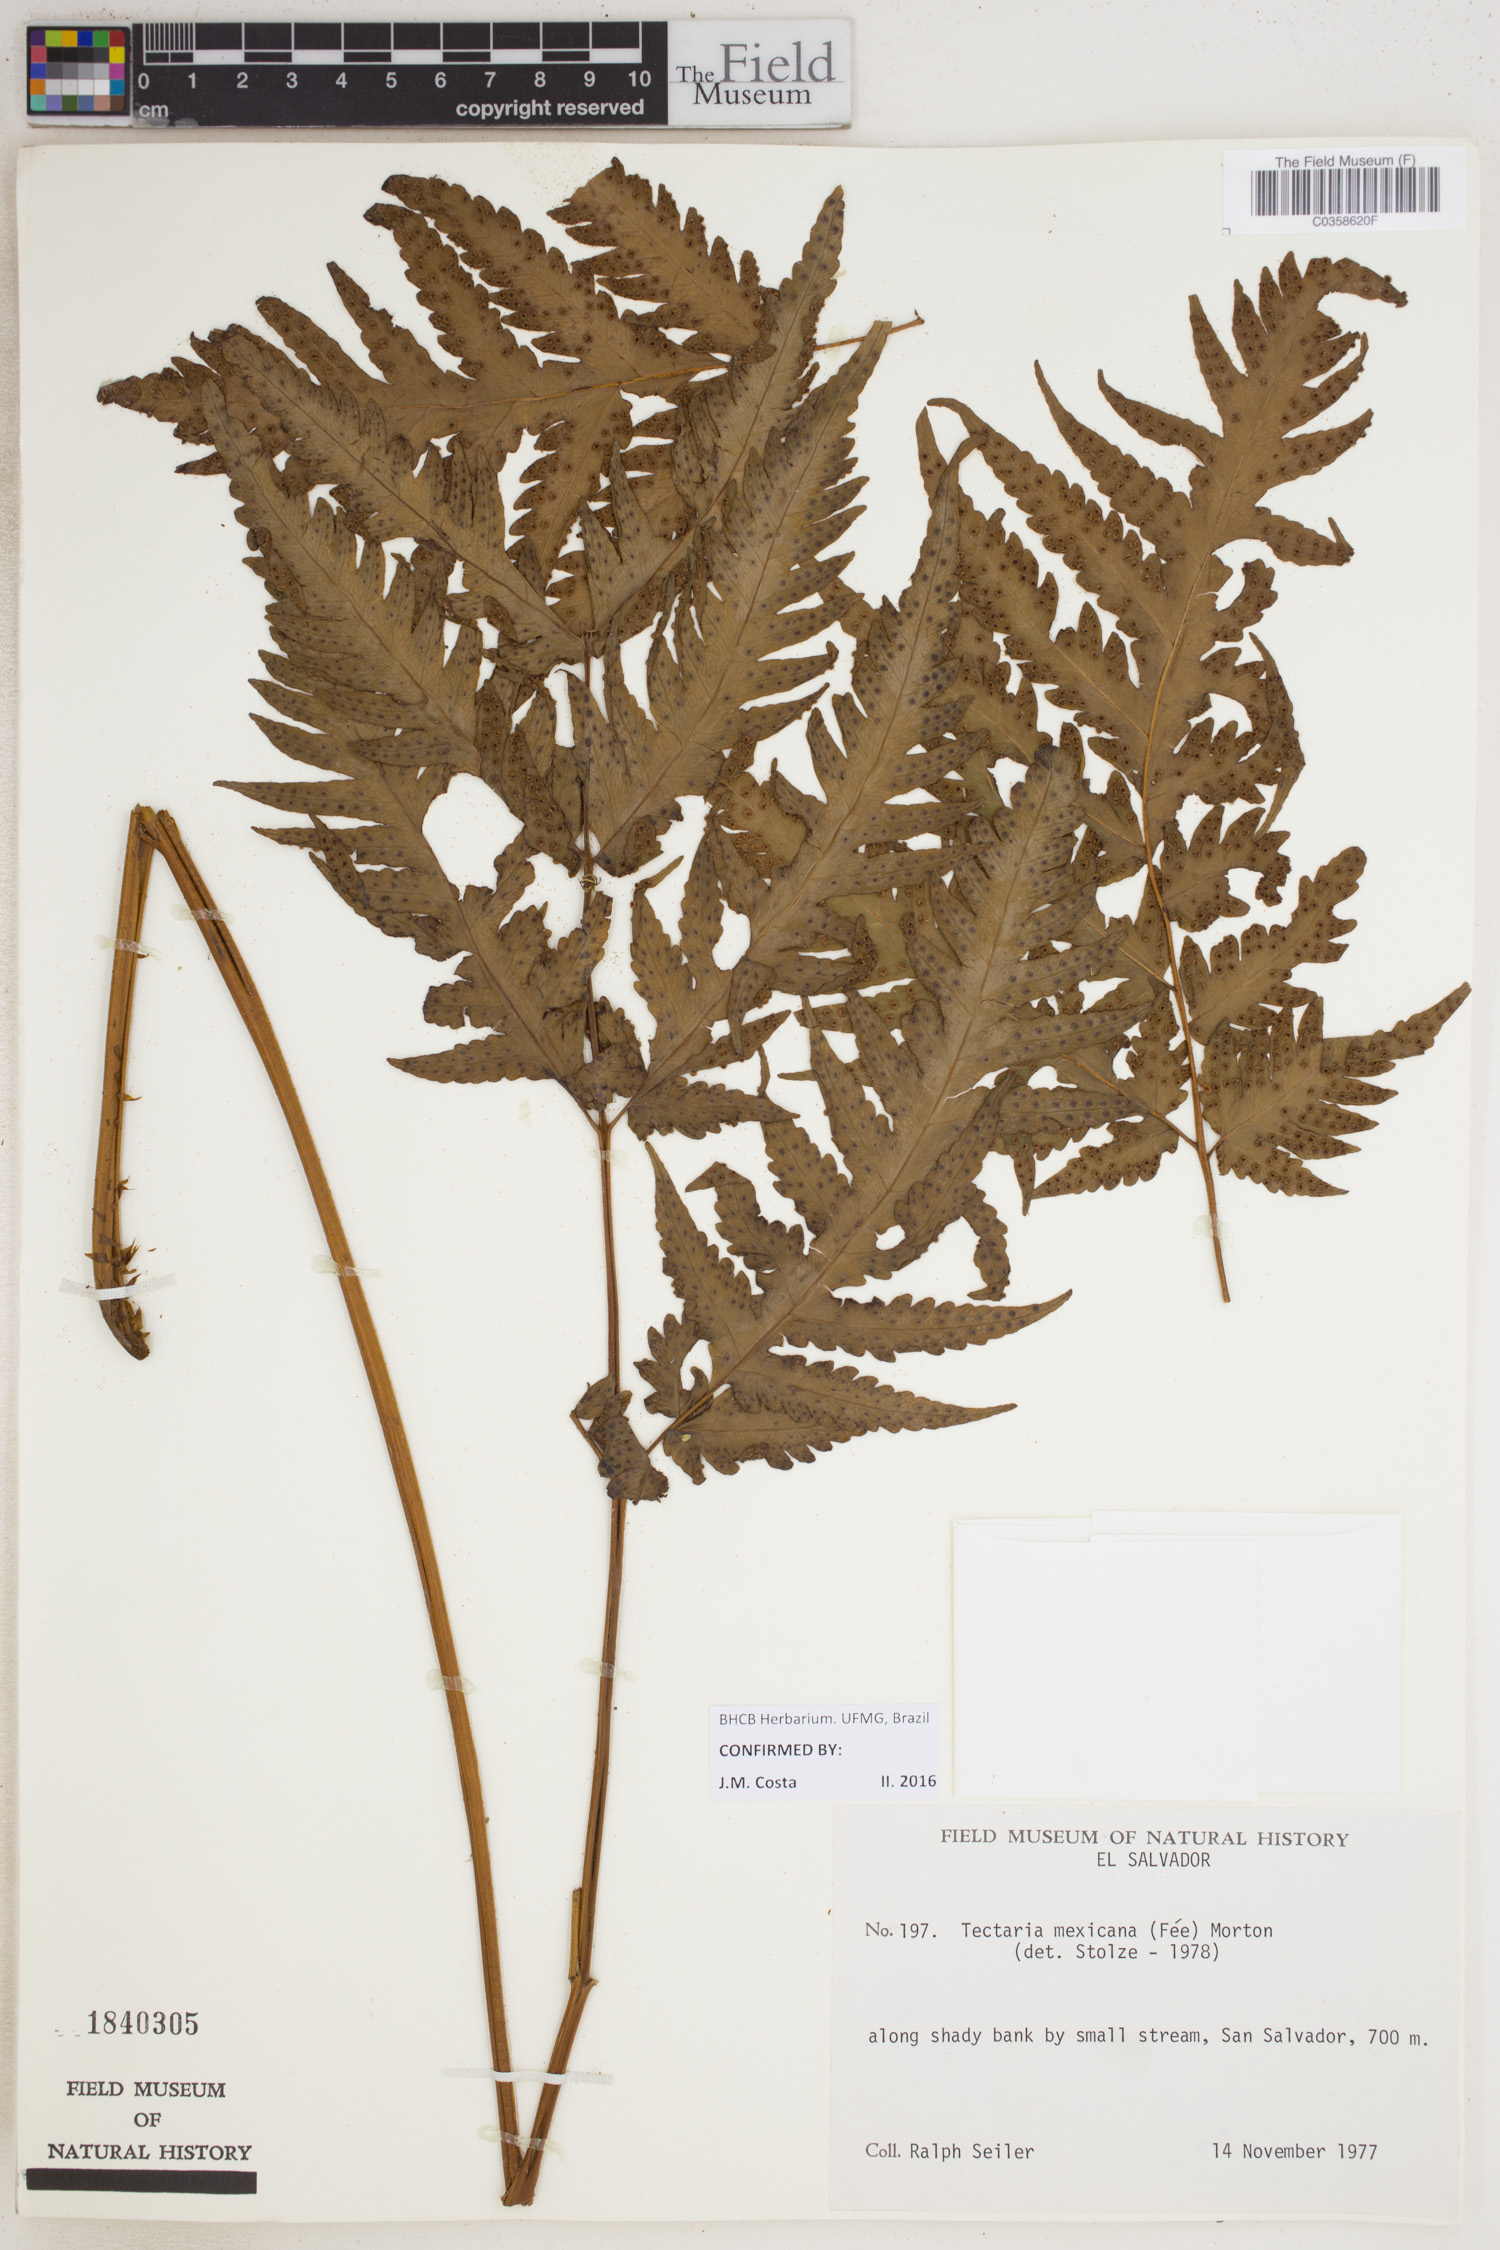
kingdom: Plantae
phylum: Tracheophyta
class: Polypodiopsida
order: Polypodiales
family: Tectariaceae
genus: Tectaria
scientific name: Tectaria mexicana
